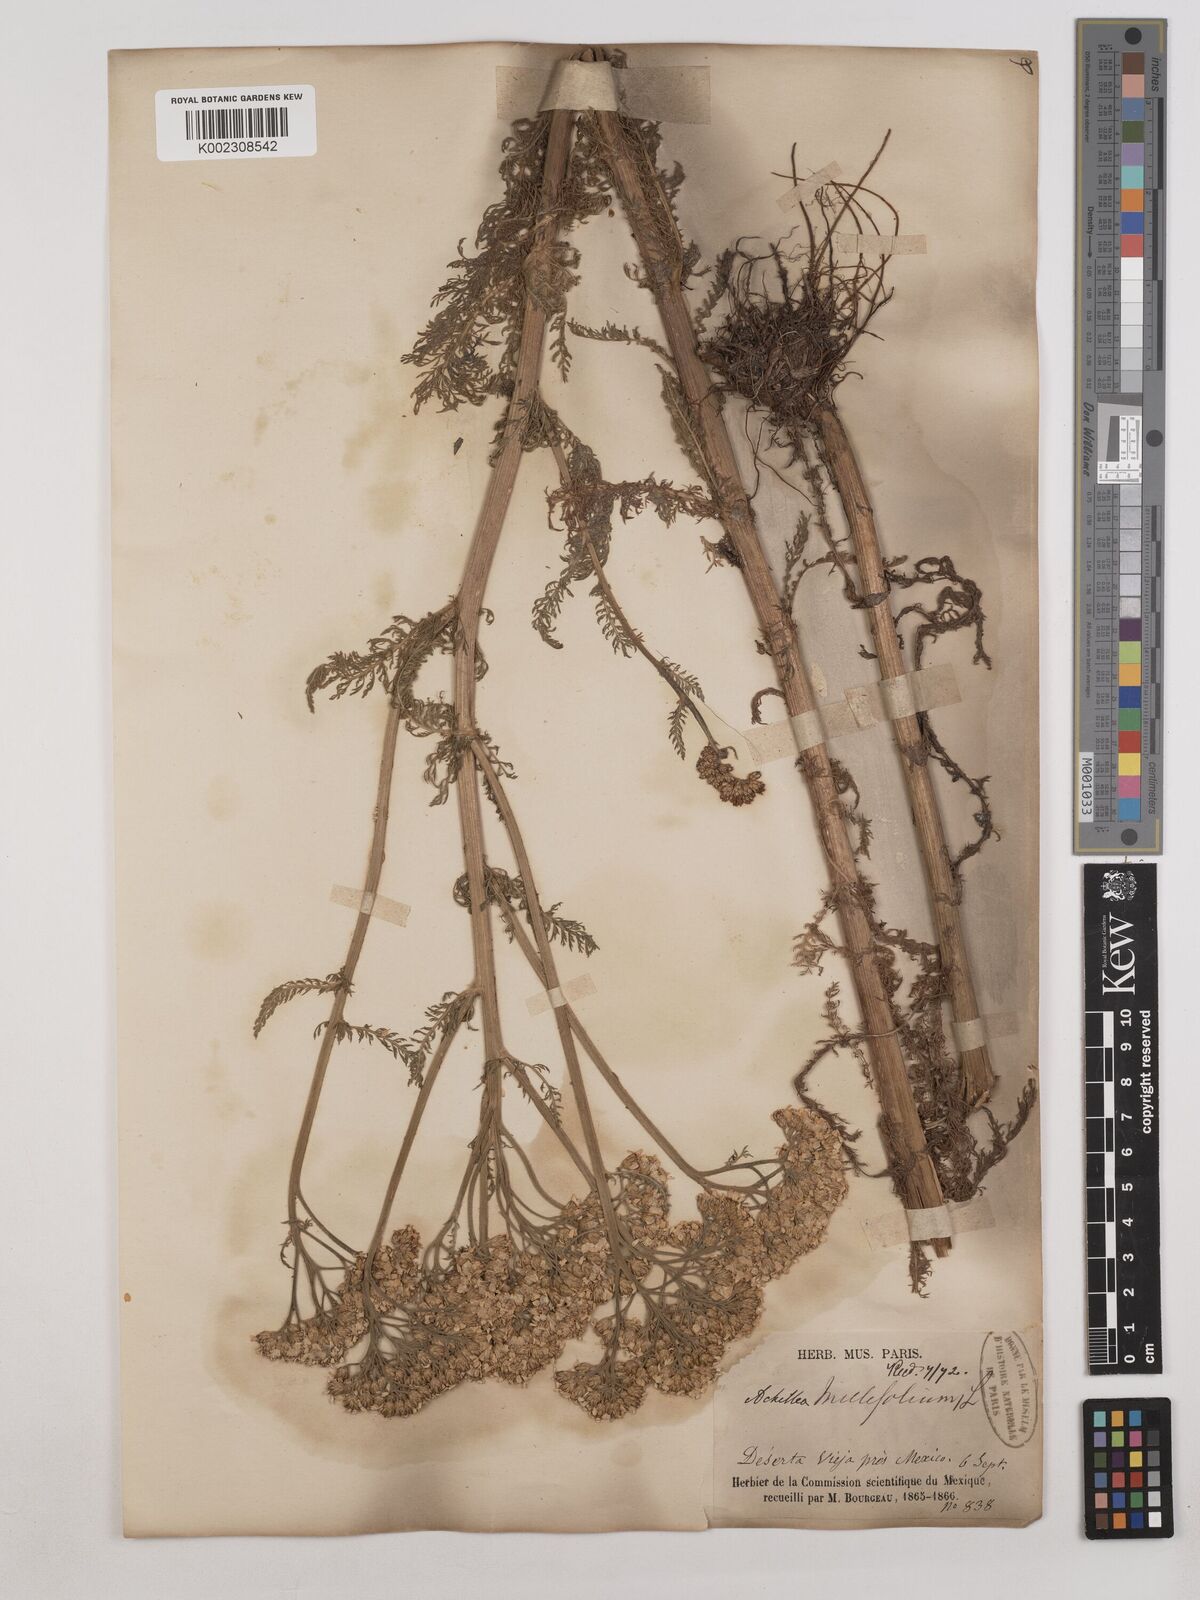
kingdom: Plantae
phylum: Tracheophyta
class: Magnoliopsida
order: Asterales
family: Asteraceae
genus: Achillea
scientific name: Achillea millefolium
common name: Yarrow
